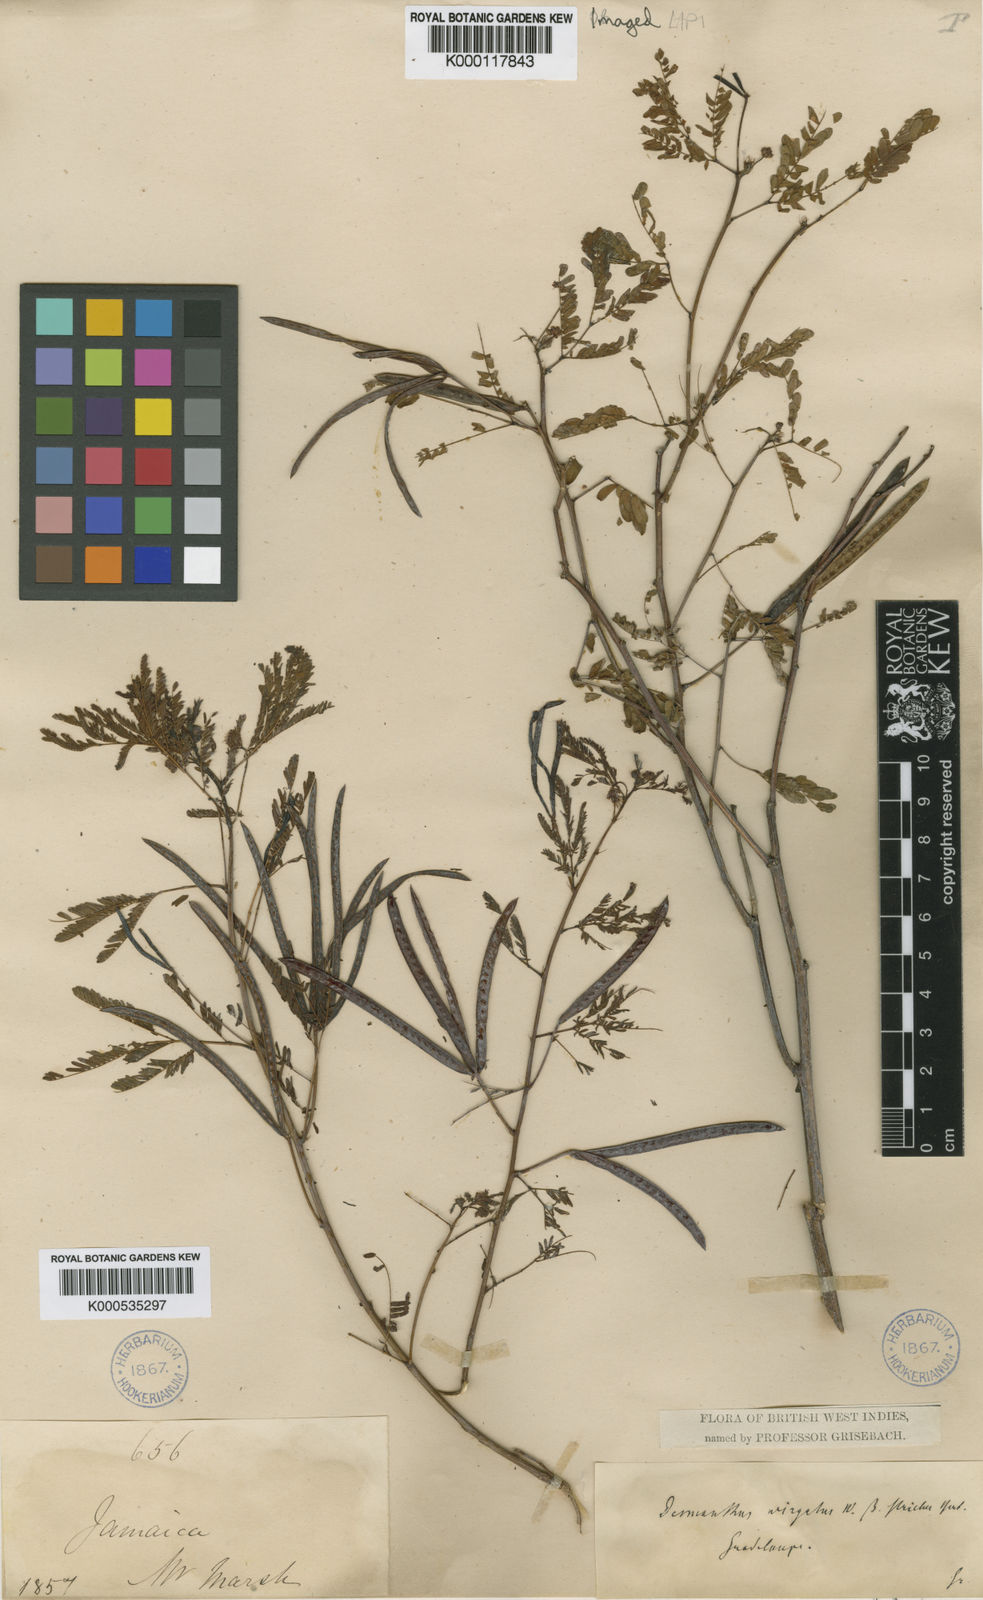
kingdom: Plantae
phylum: Tracheophyta
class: Magnoliopsida
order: Fabales
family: Fabaceae
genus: Desmanthus
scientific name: Desmanthus virgatus
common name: Wild tantan
